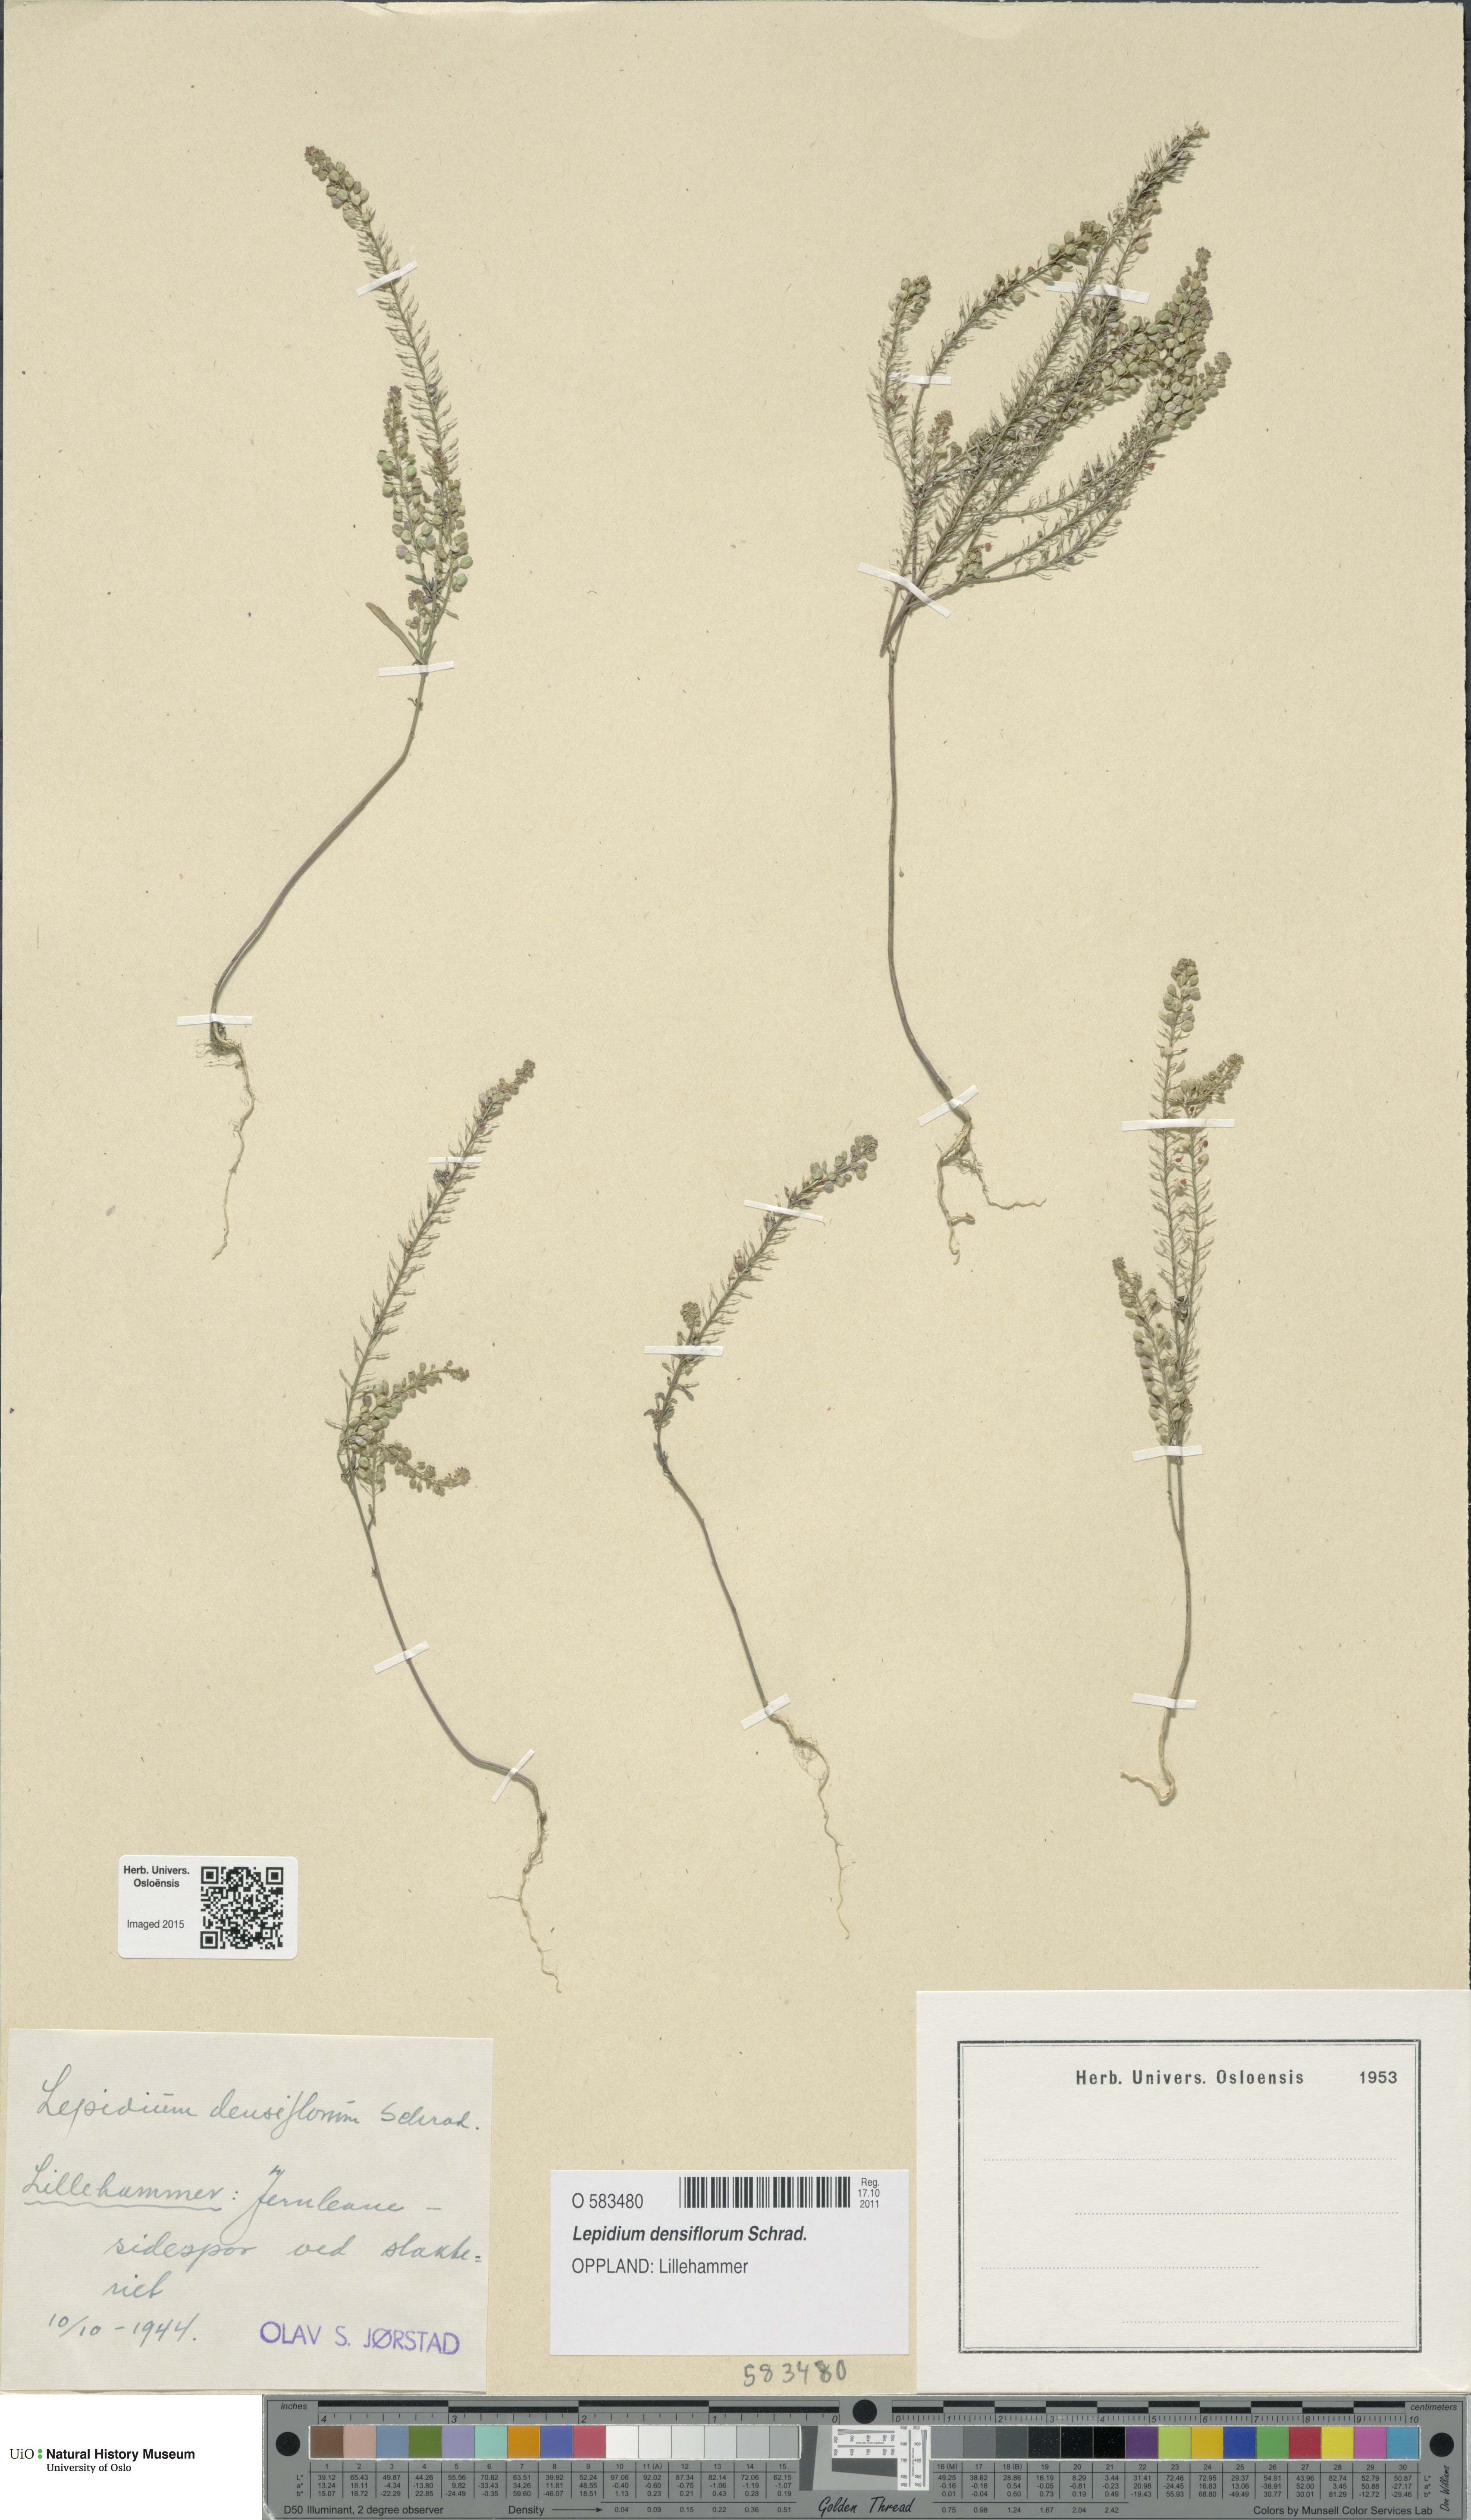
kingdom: Plantae
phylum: Tracheophyta
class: Magnoliopsida
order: Brassicales
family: Brassicaceae
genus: Lepidium
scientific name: Lepidium densiflorum
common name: Miner's pepperwort
